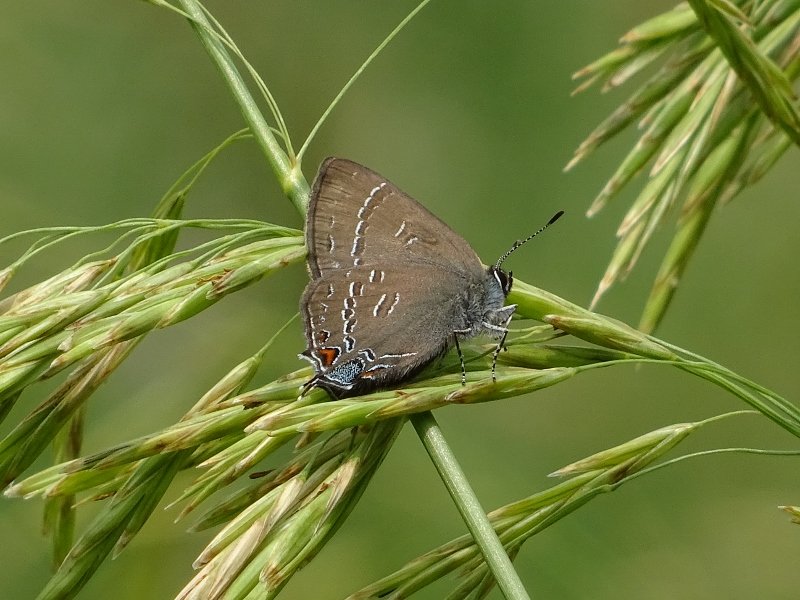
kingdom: Animalia
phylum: Arthropoda
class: Insecta
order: Lepidoptera
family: Lycaenidae
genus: Satyrium
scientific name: Satyrium calanus
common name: Banded Hairstreak
